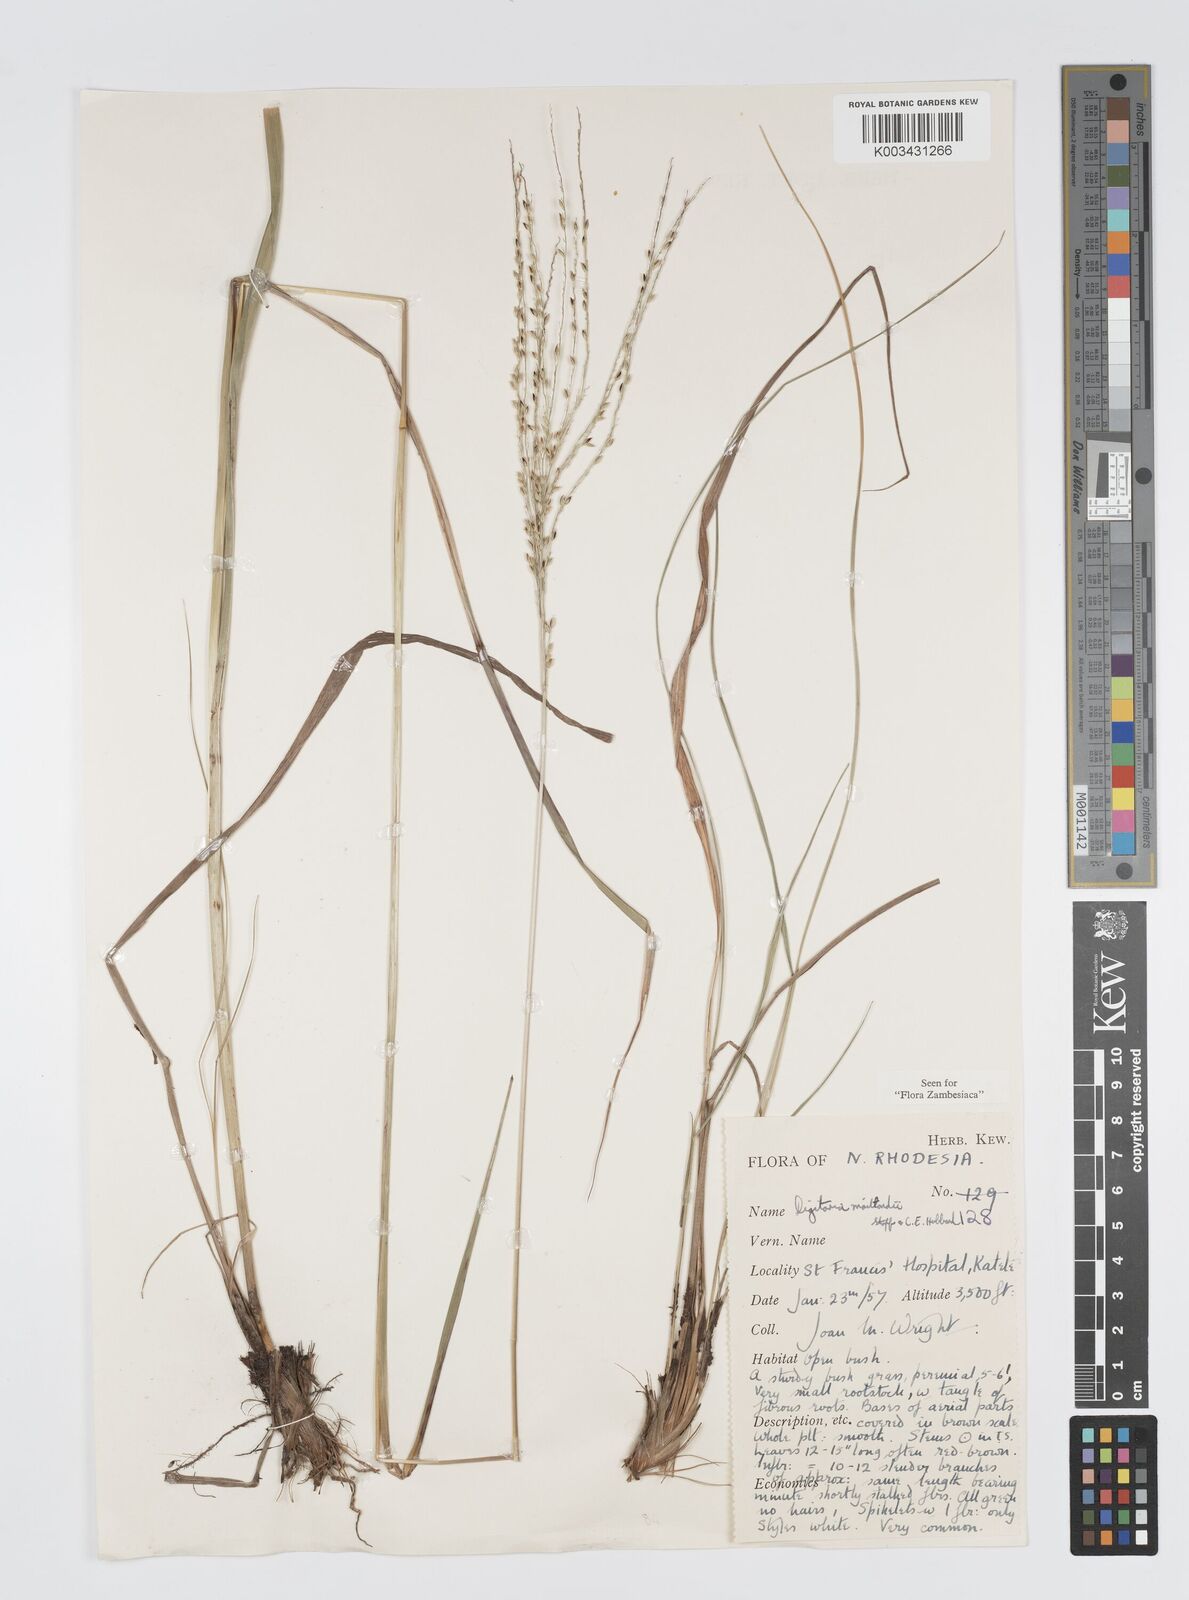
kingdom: Plantae
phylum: Tracheophyta
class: Liliopsida
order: Poales
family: Poaceae
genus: Digitaria
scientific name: Digitaria compressa
